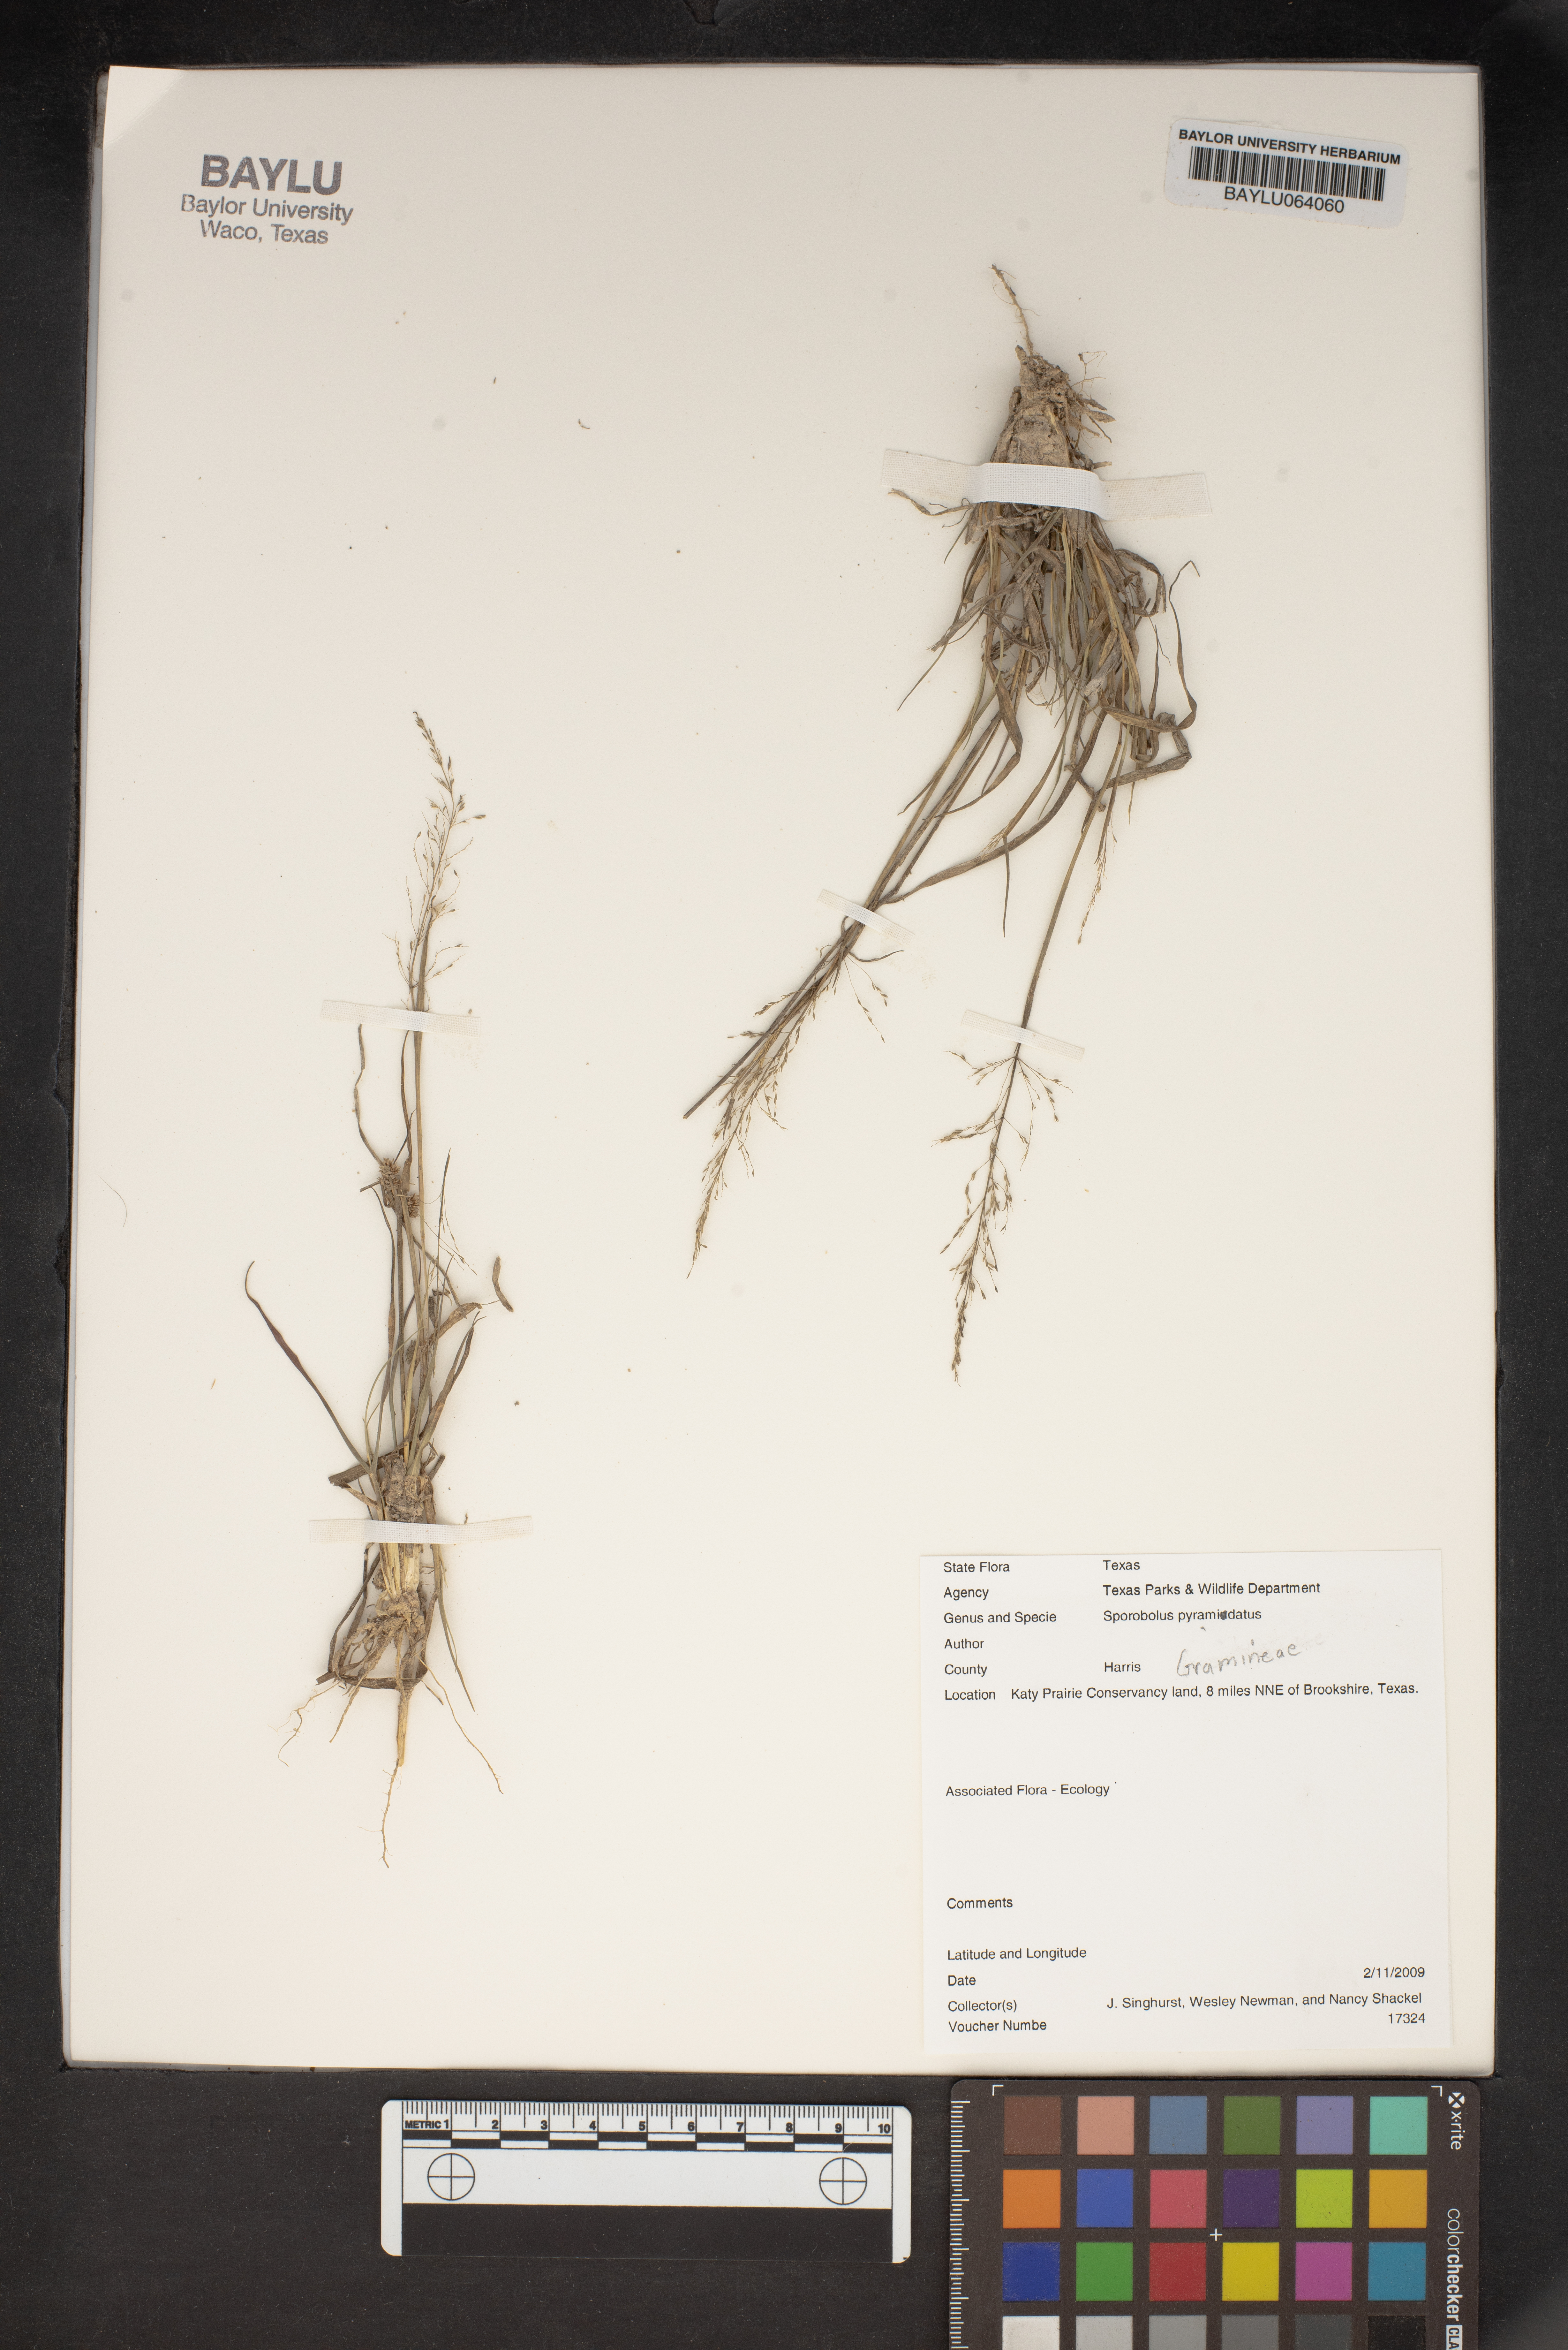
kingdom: Plantae
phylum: Tracheophyta
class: Liliopsida
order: Poales
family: Poaceae
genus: Sporobolus
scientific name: Sporobolus pyramidatus
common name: Whorled dropseed
